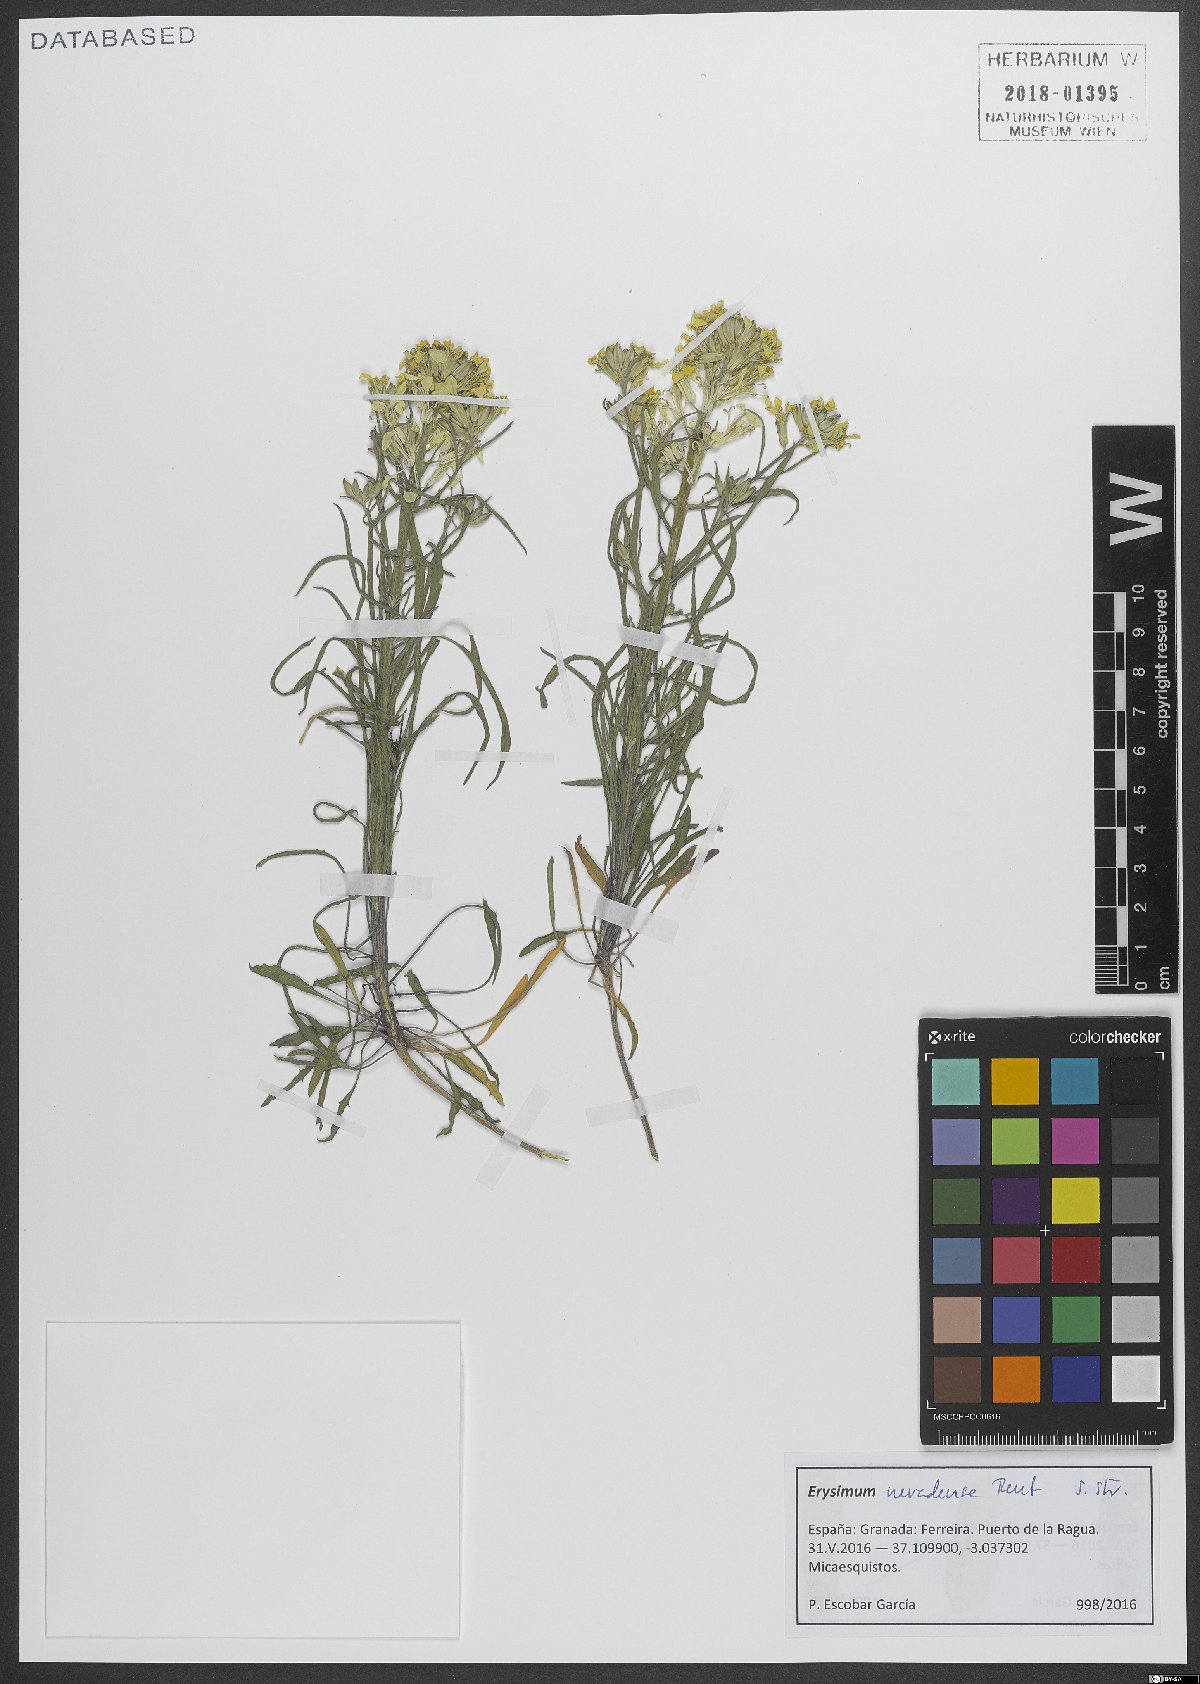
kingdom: Plantae
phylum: Tracheophyta
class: Magnoliopsida
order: Brassicales
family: Brassicaceae
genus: Erysimum
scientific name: Erysimum nevadense
